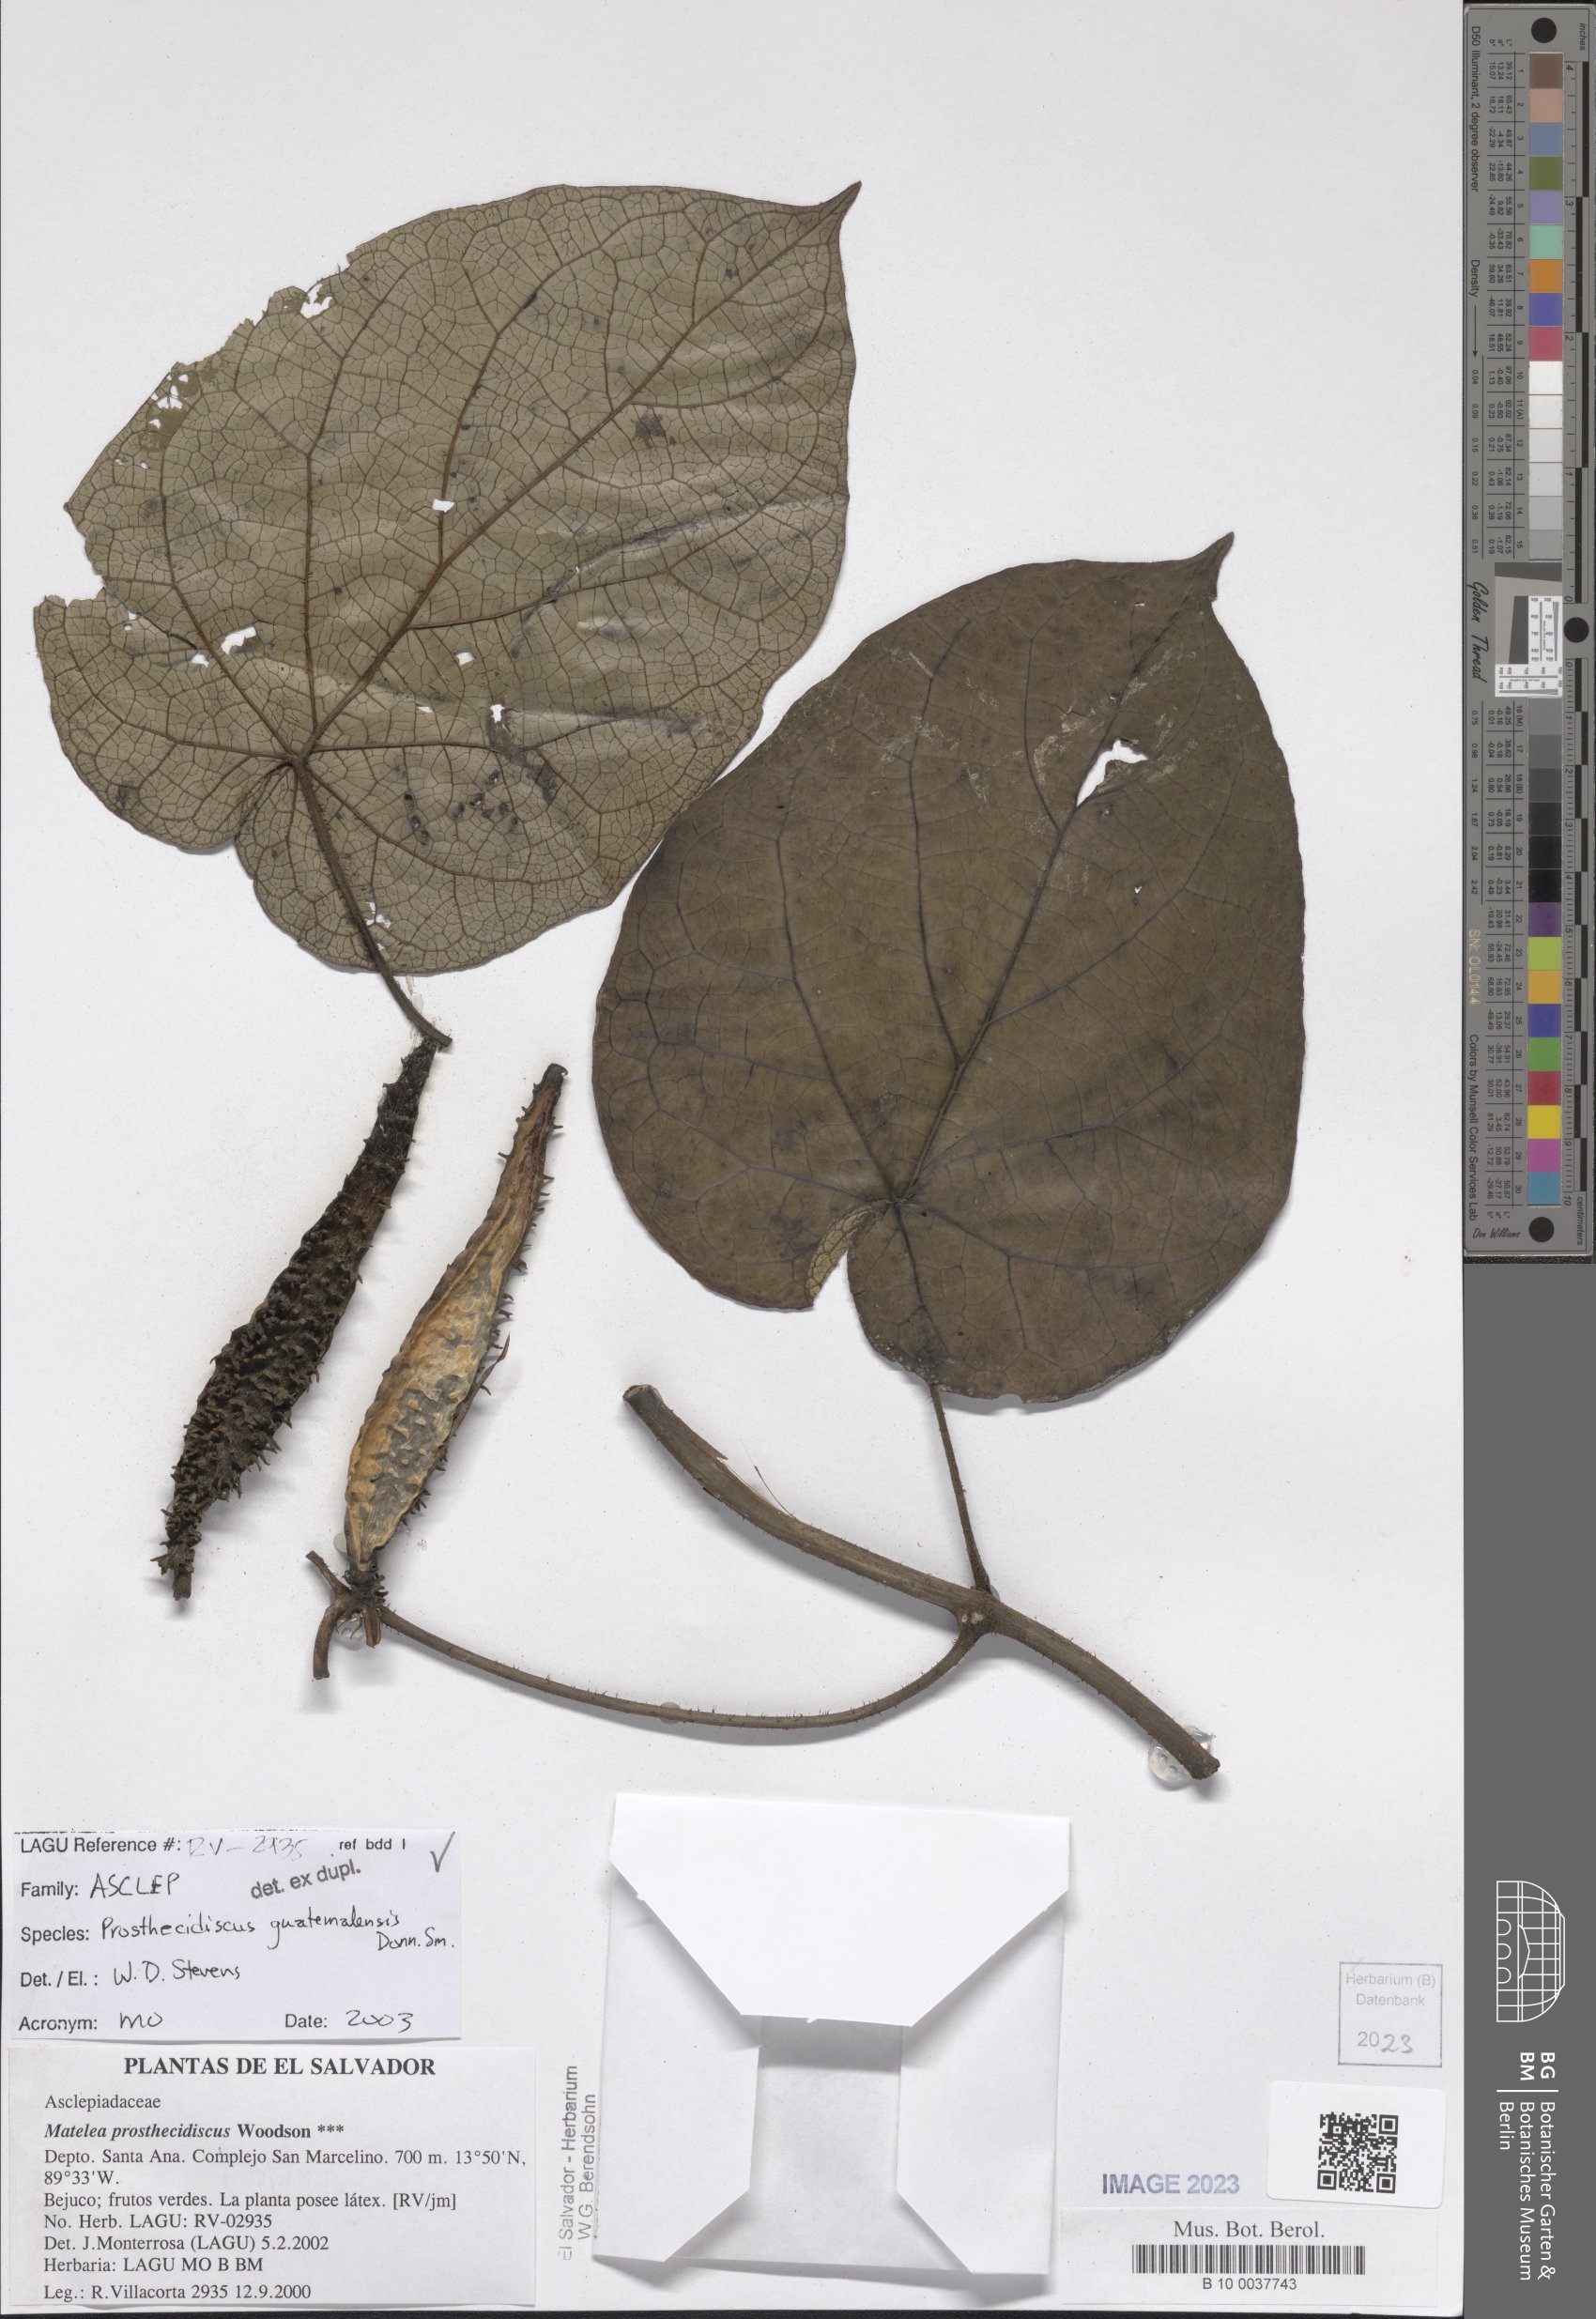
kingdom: Plantae
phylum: Tracheophyta
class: Magnoliopsida
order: Gentianales
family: Apocynaceae
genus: Matelea
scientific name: Matelea prosthecidiscus
